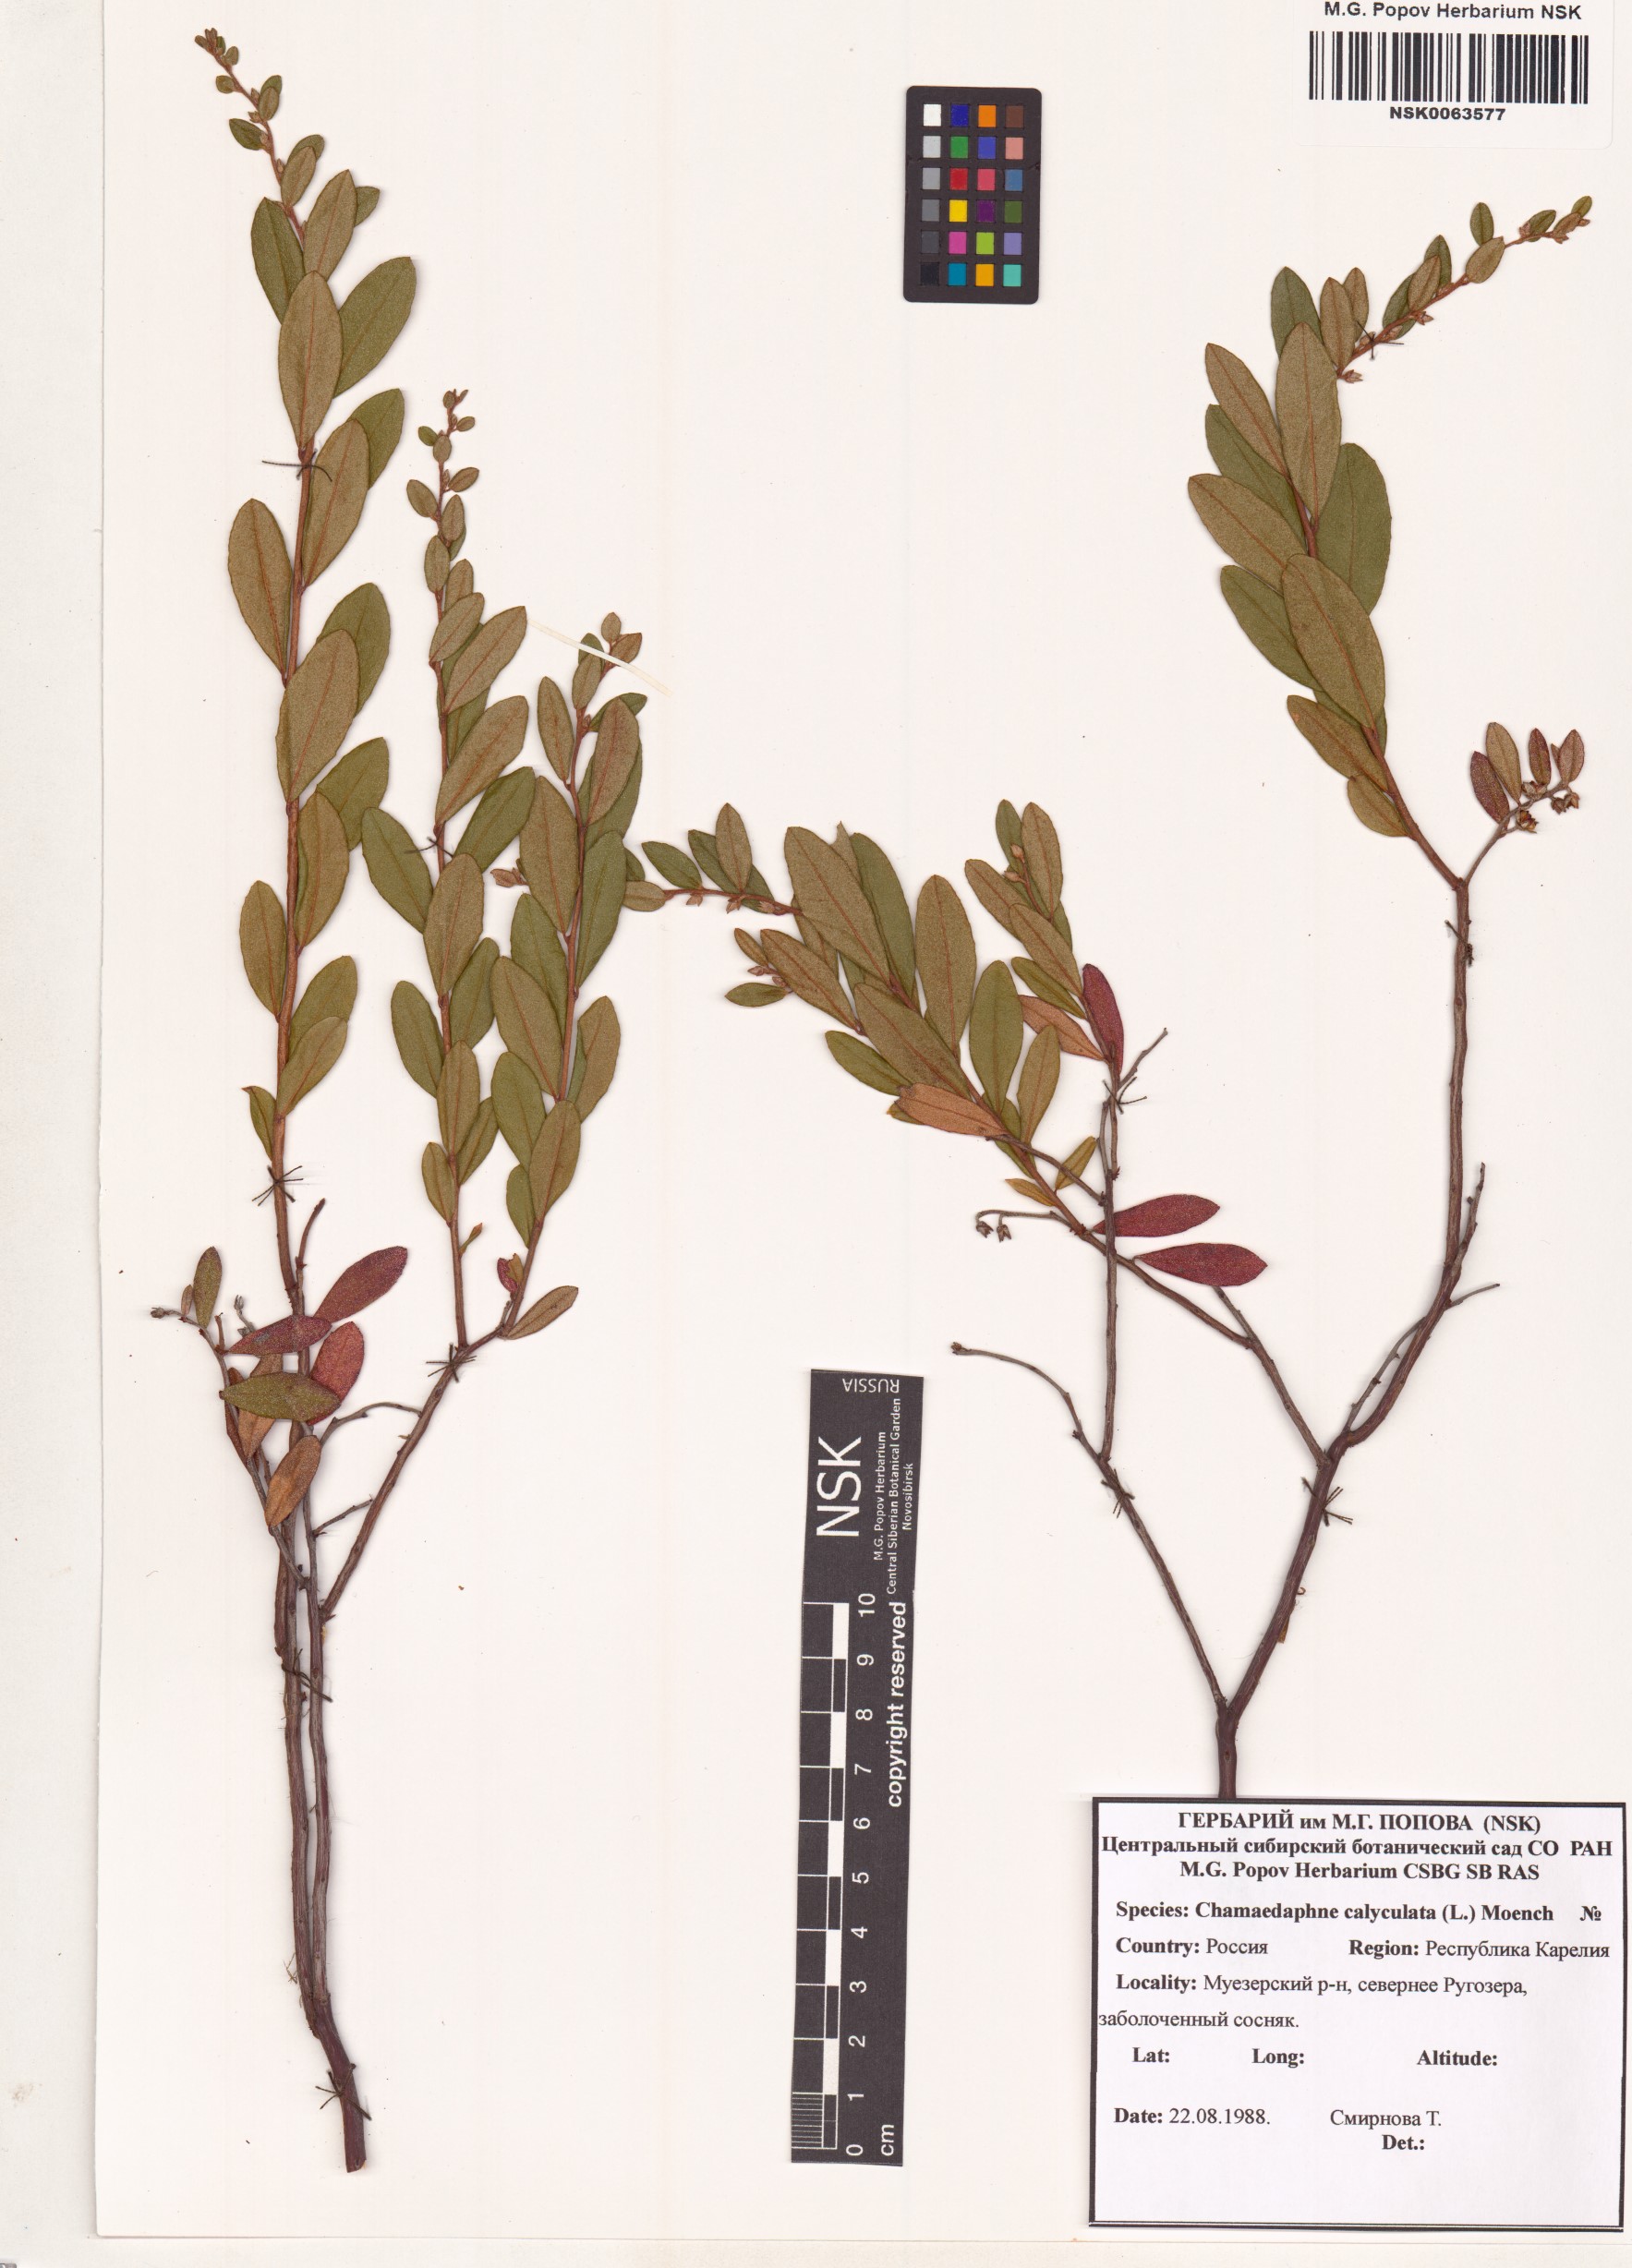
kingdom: Plantae
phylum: Tracheophyta
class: Magnoliopsida
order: Ericales
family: Ericaceae
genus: Chamaedaphne
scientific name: Chamaedaphne calyculata
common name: Leatherleaf
